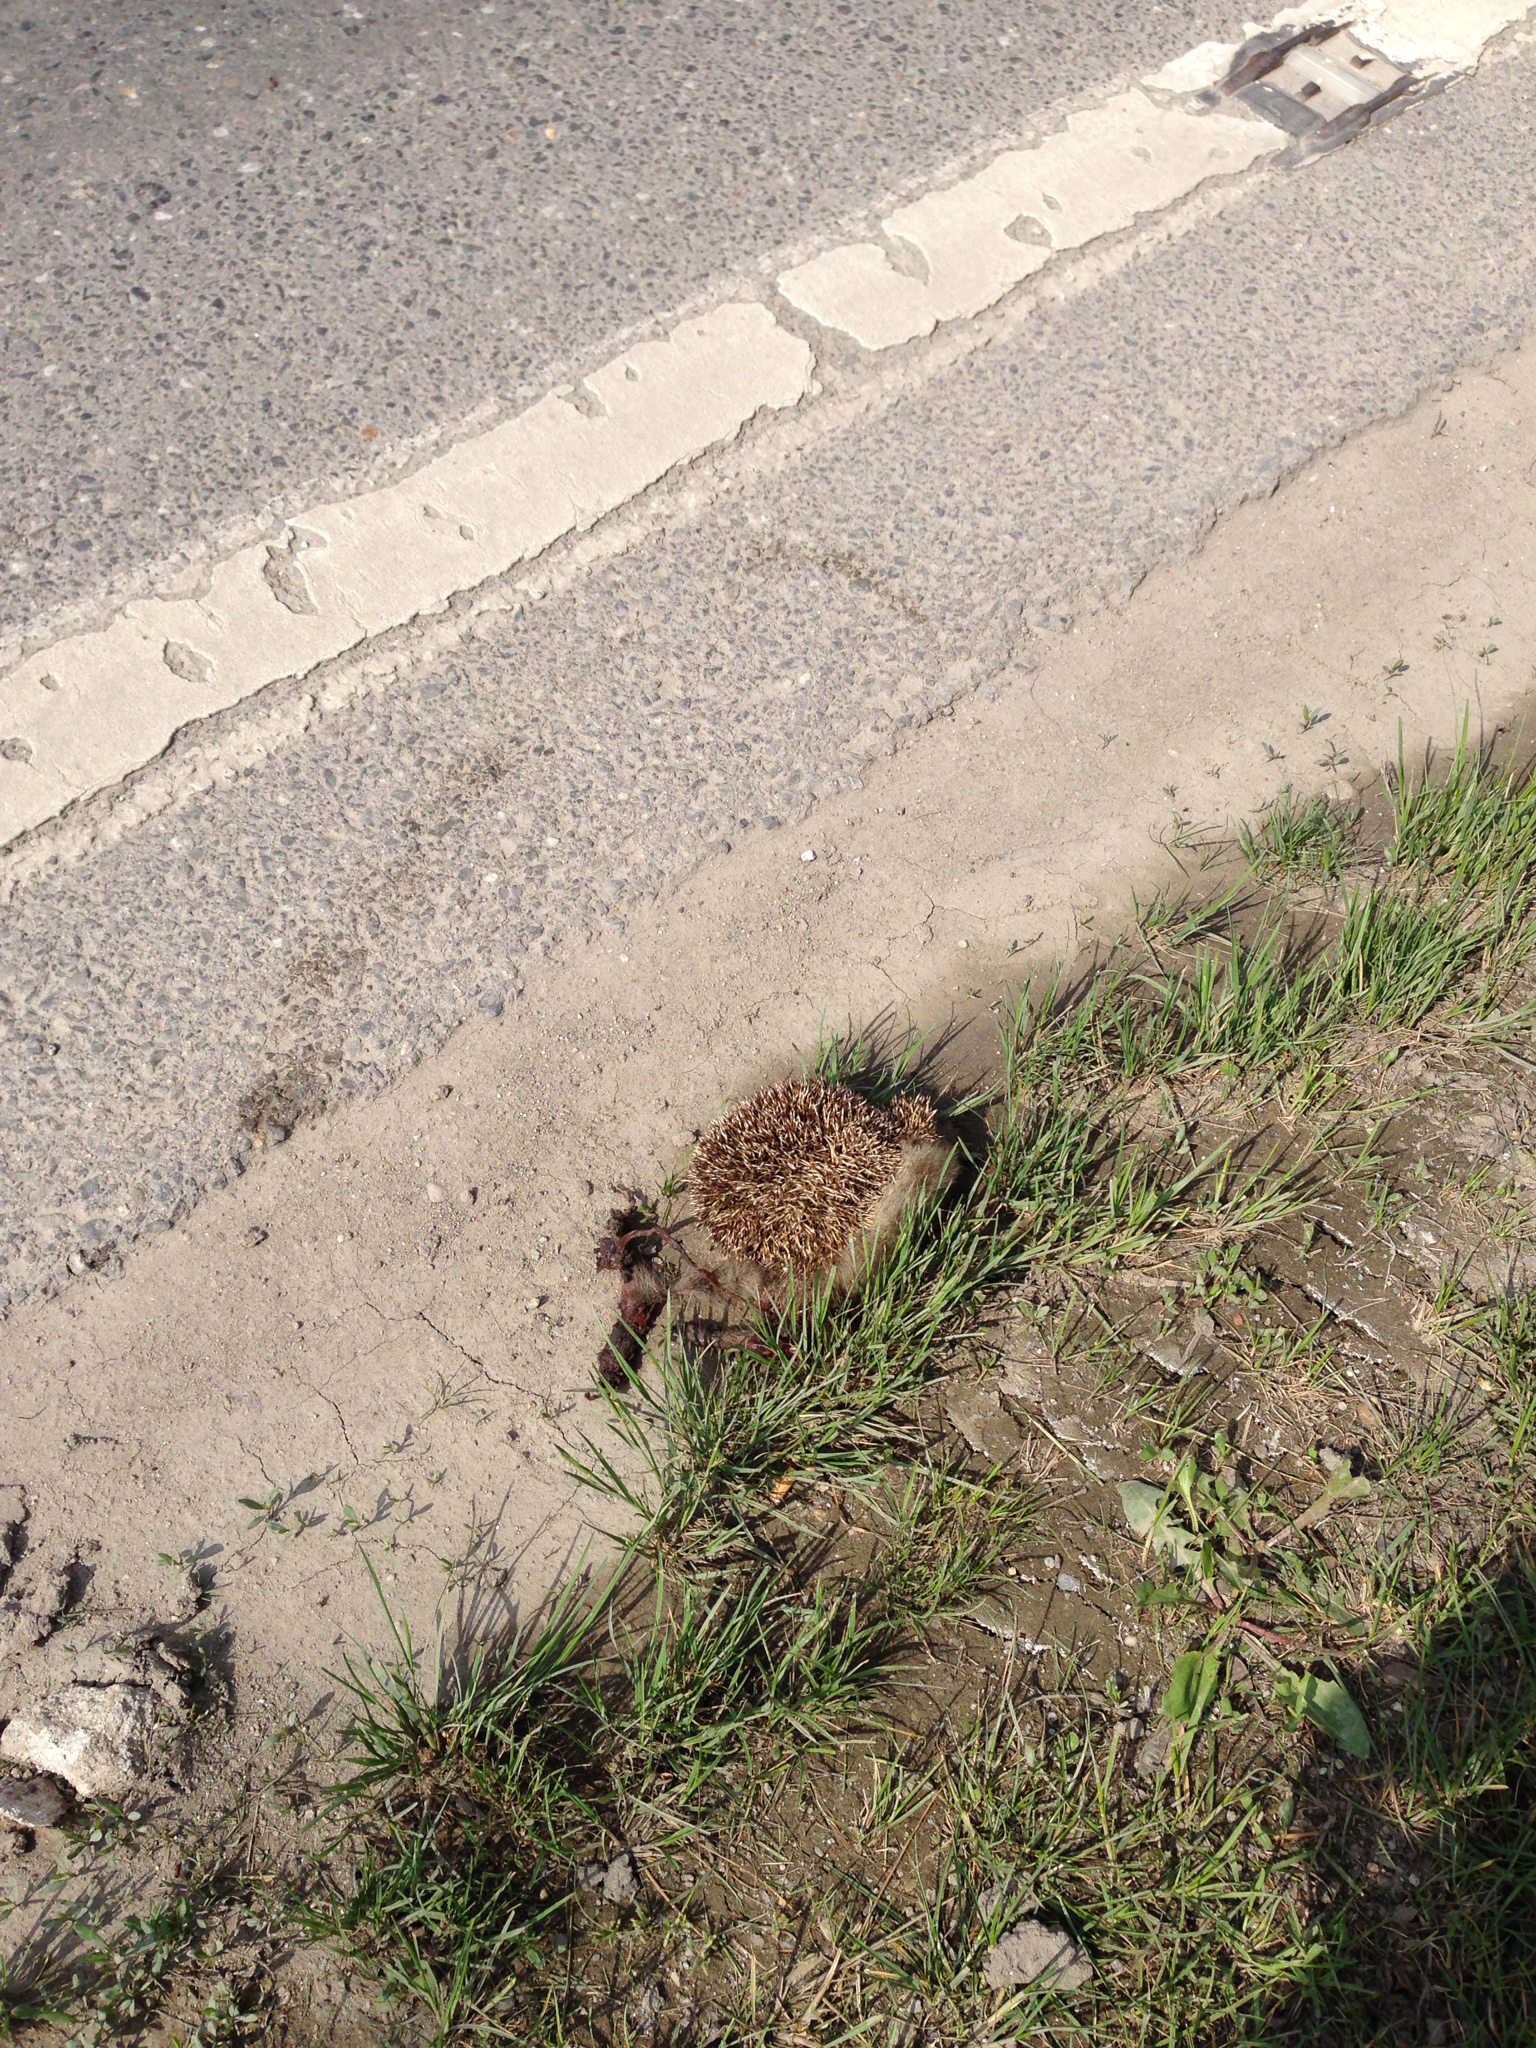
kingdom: Animalia
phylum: Chordata
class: Mammalia
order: Erinaceomorpha
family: Erinaceidae
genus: Erinaceus
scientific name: Erinaceus
